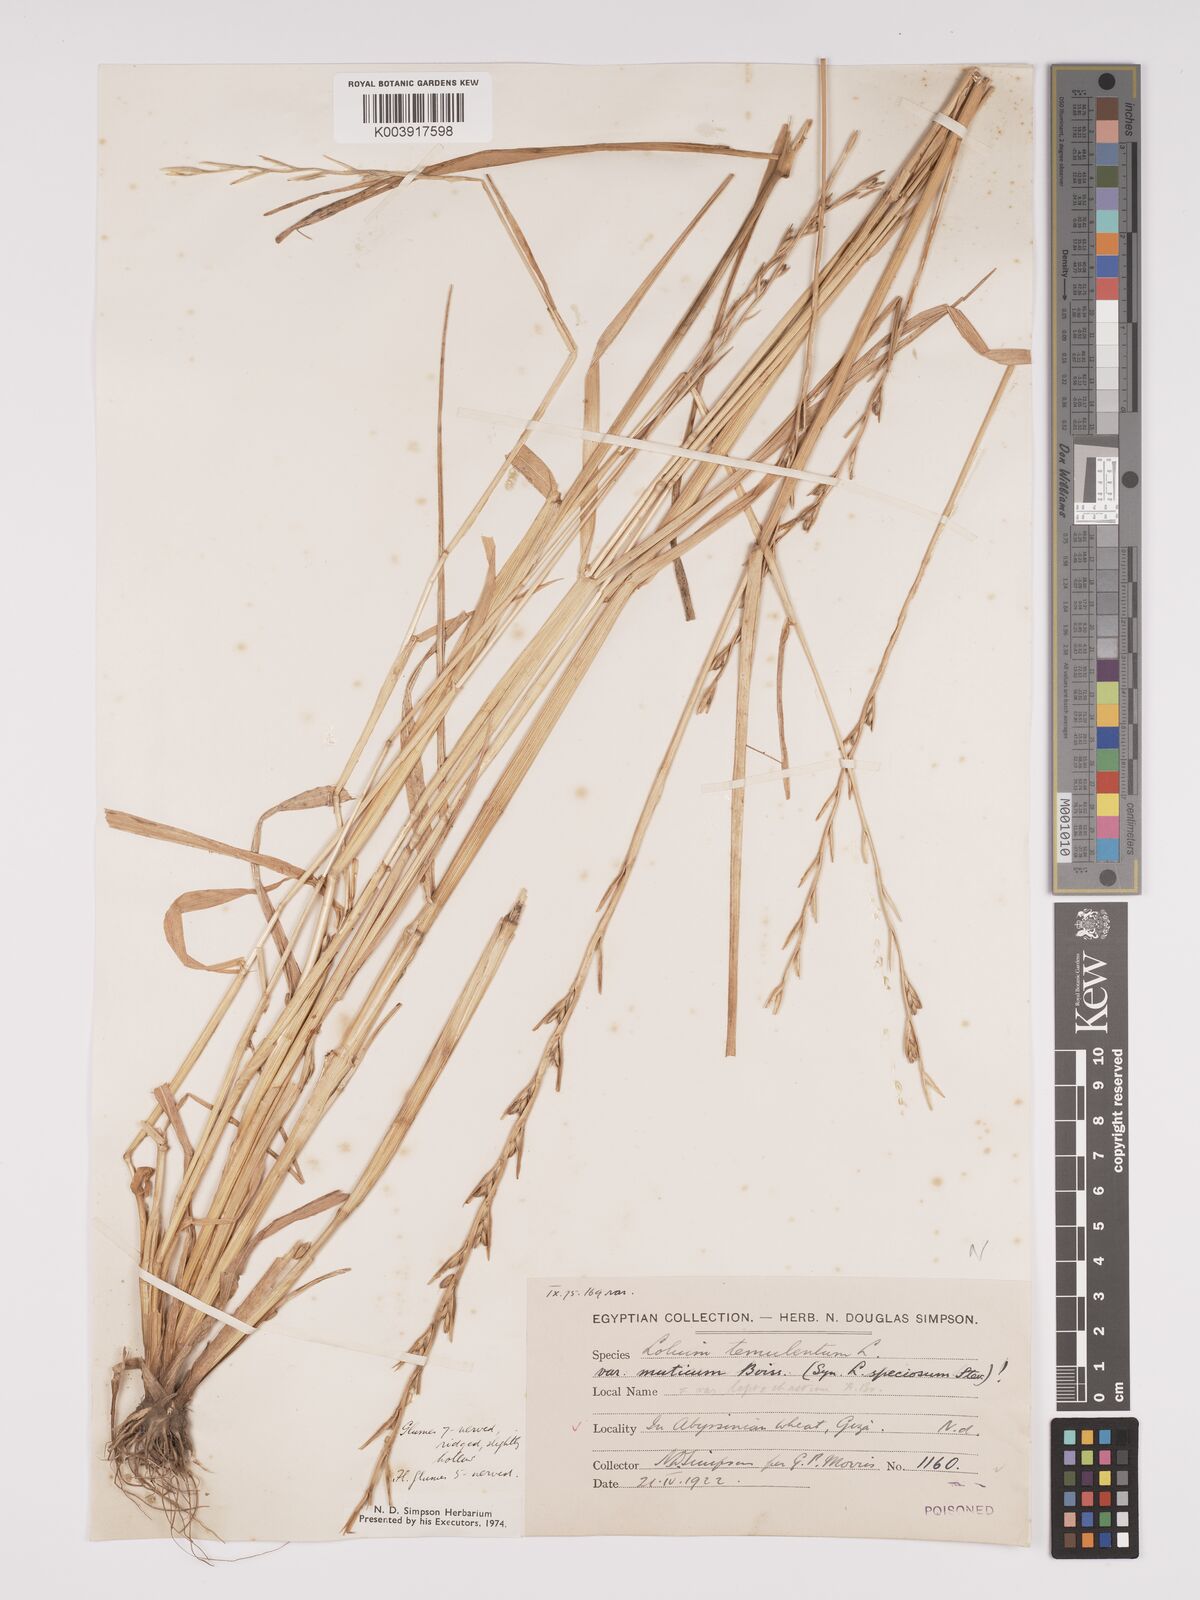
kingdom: Plantae
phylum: Tracheophyta
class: Liliopsida
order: Poales
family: Poaceae
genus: Lolium
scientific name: Lolium temulentum
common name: Darnel
